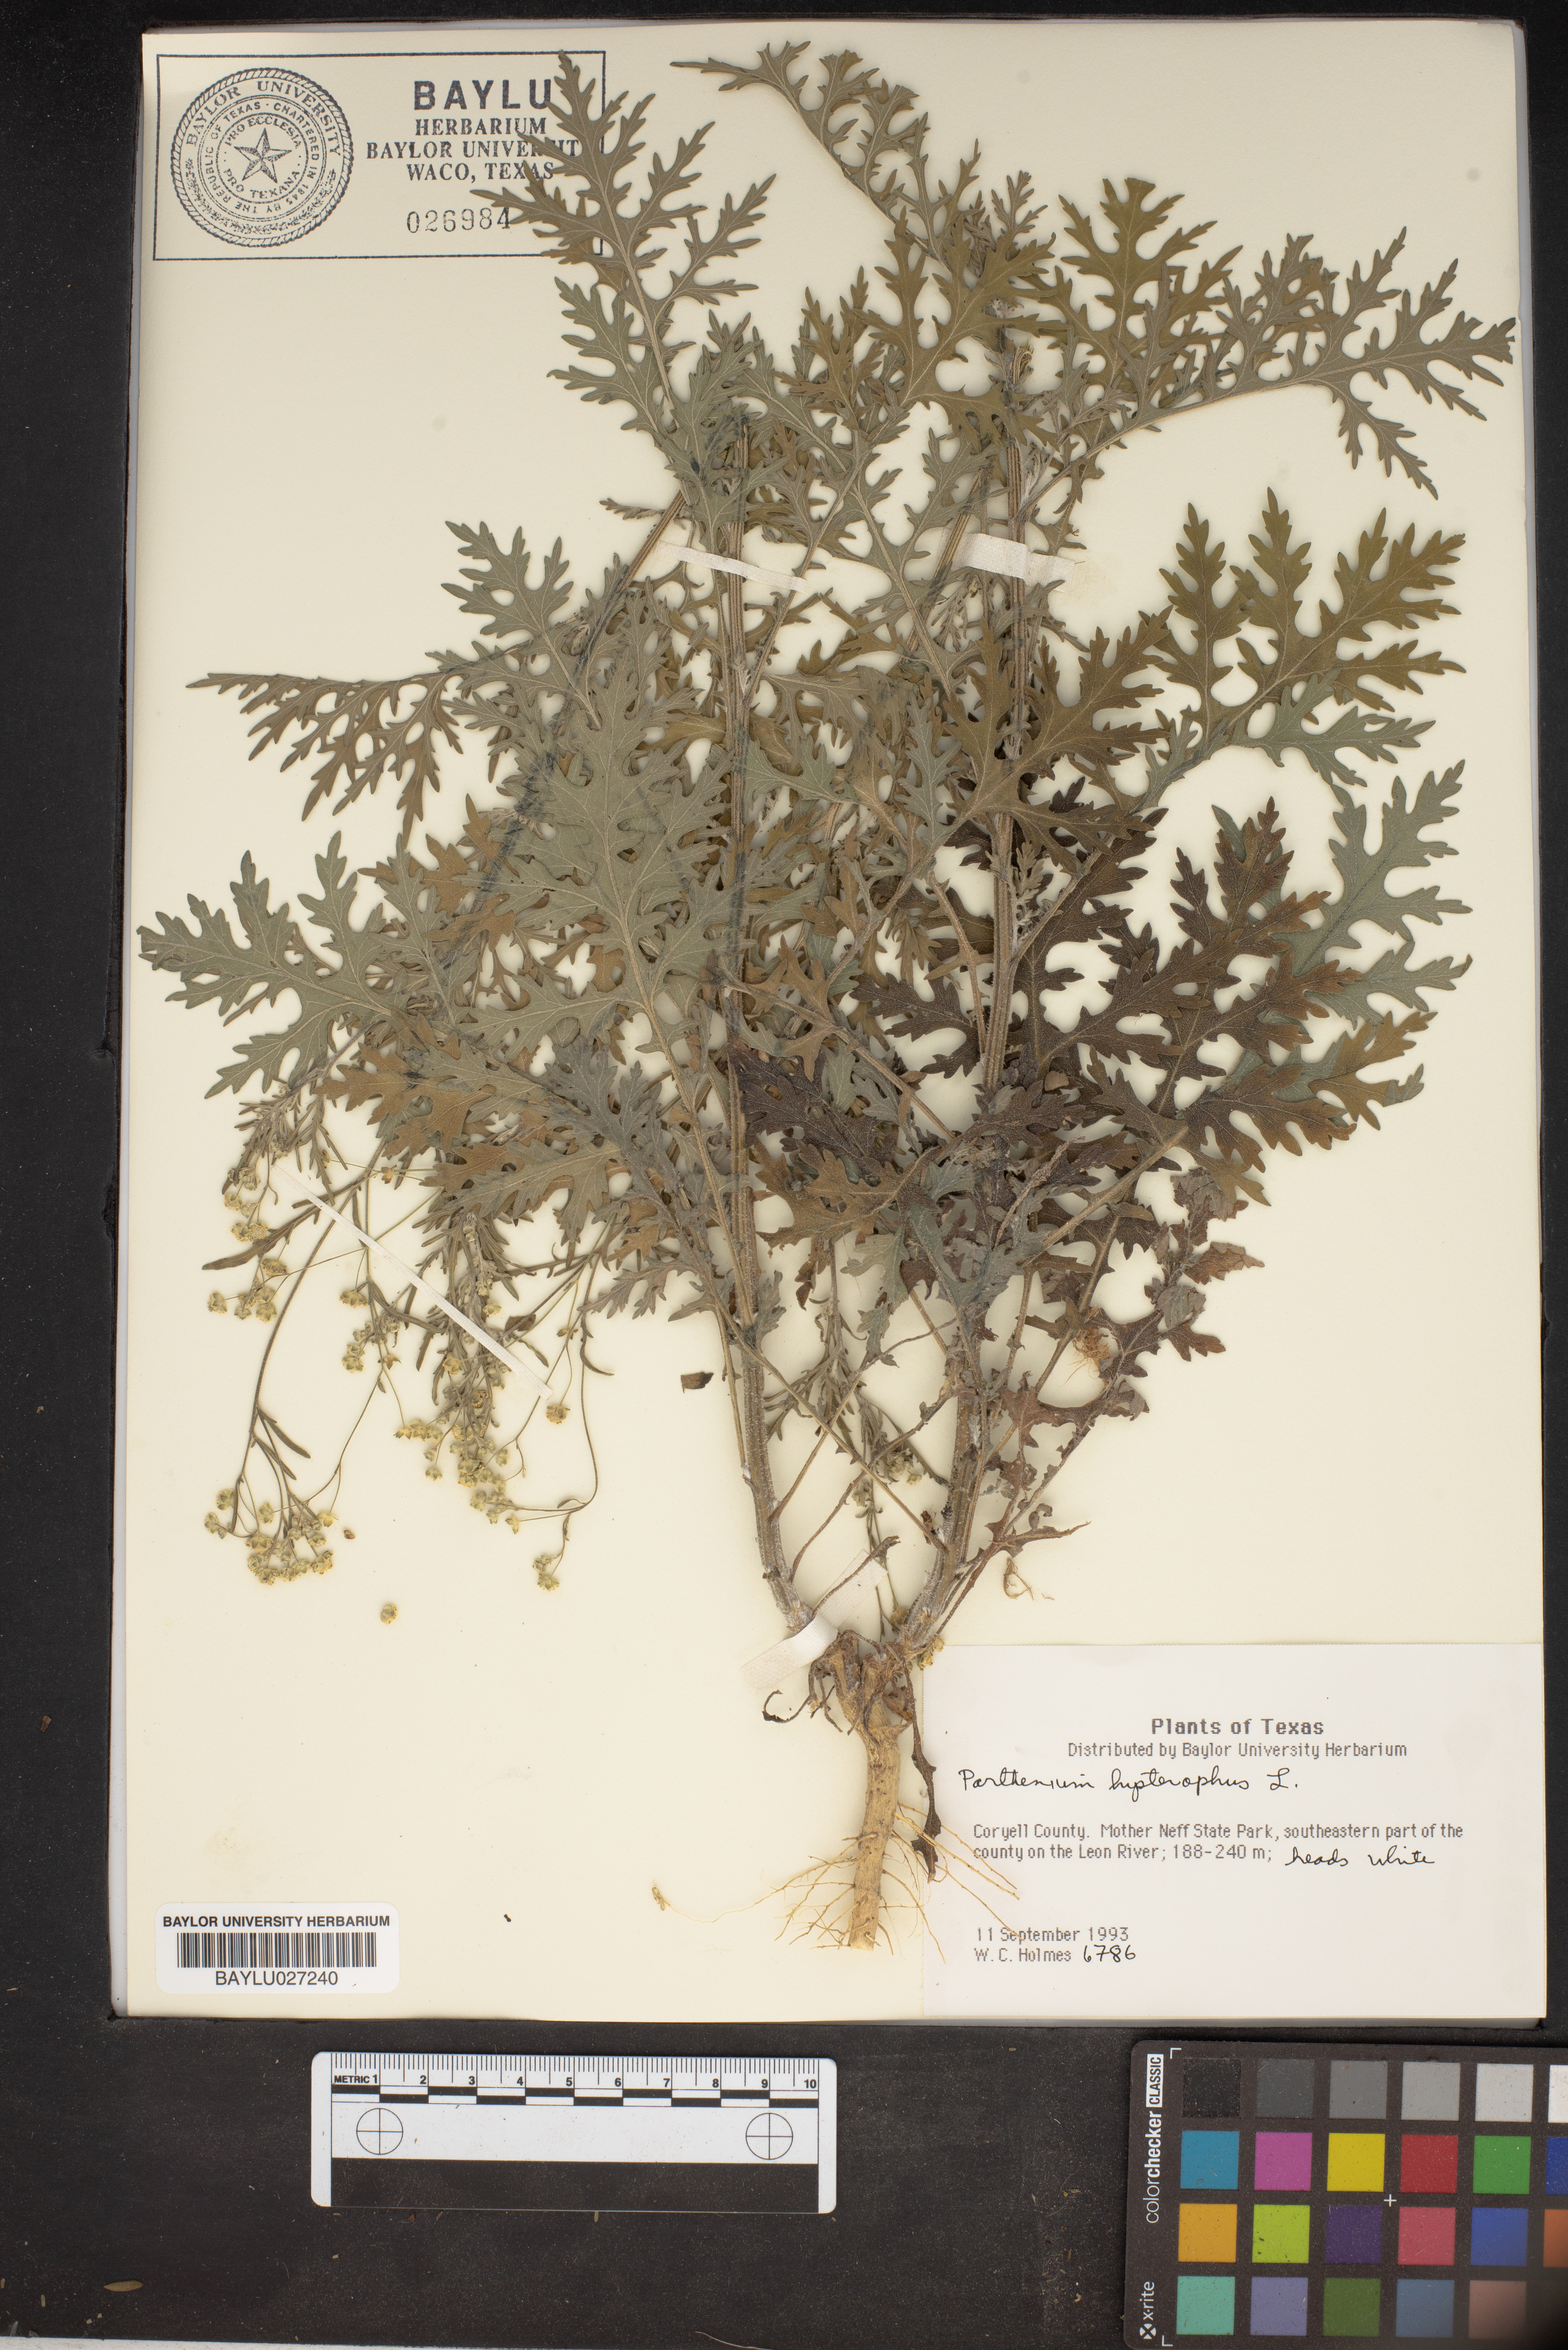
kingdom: Plantae
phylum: Tracheophyta
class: Magnoliopsida
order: Asterales
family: Asteraceae
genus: Parthenium
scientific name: Parthenium
